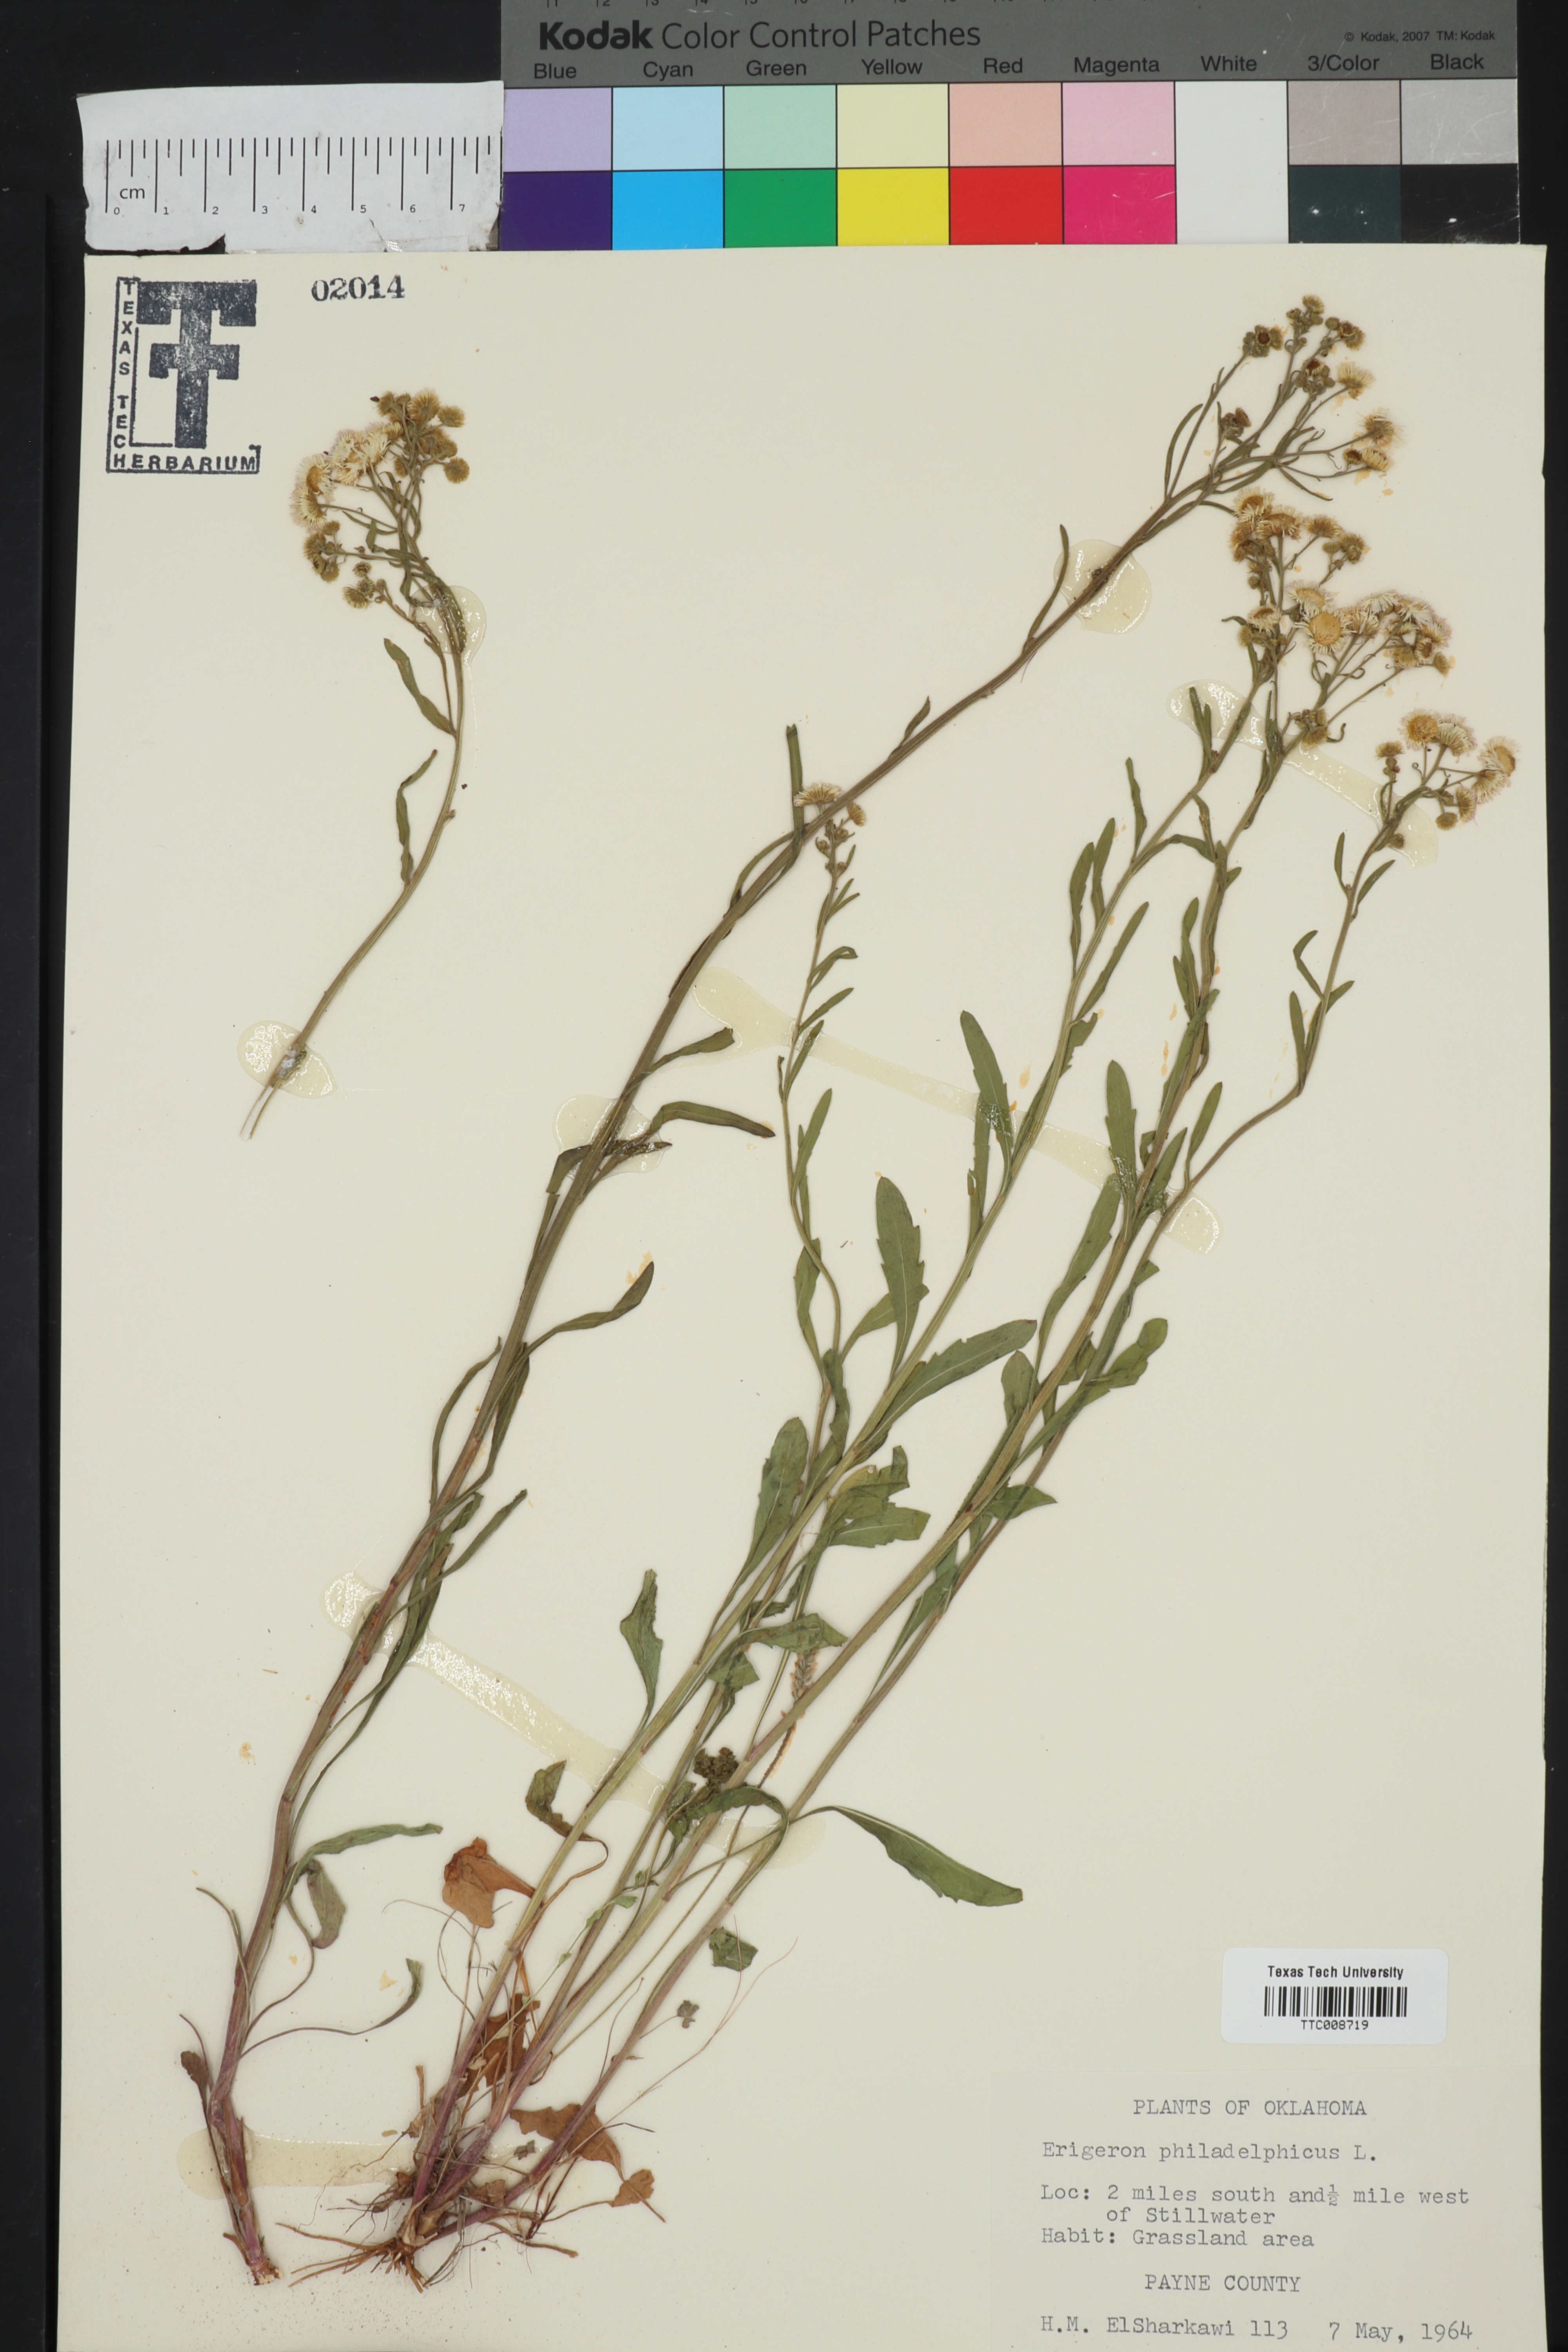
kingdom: Plantae
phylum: Tracheophyta
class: Magnoliopsida
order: Asterales
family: Asteraceae
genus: Erigeron
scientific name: Erigeron philadelphicus
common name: Robin's-plantain
